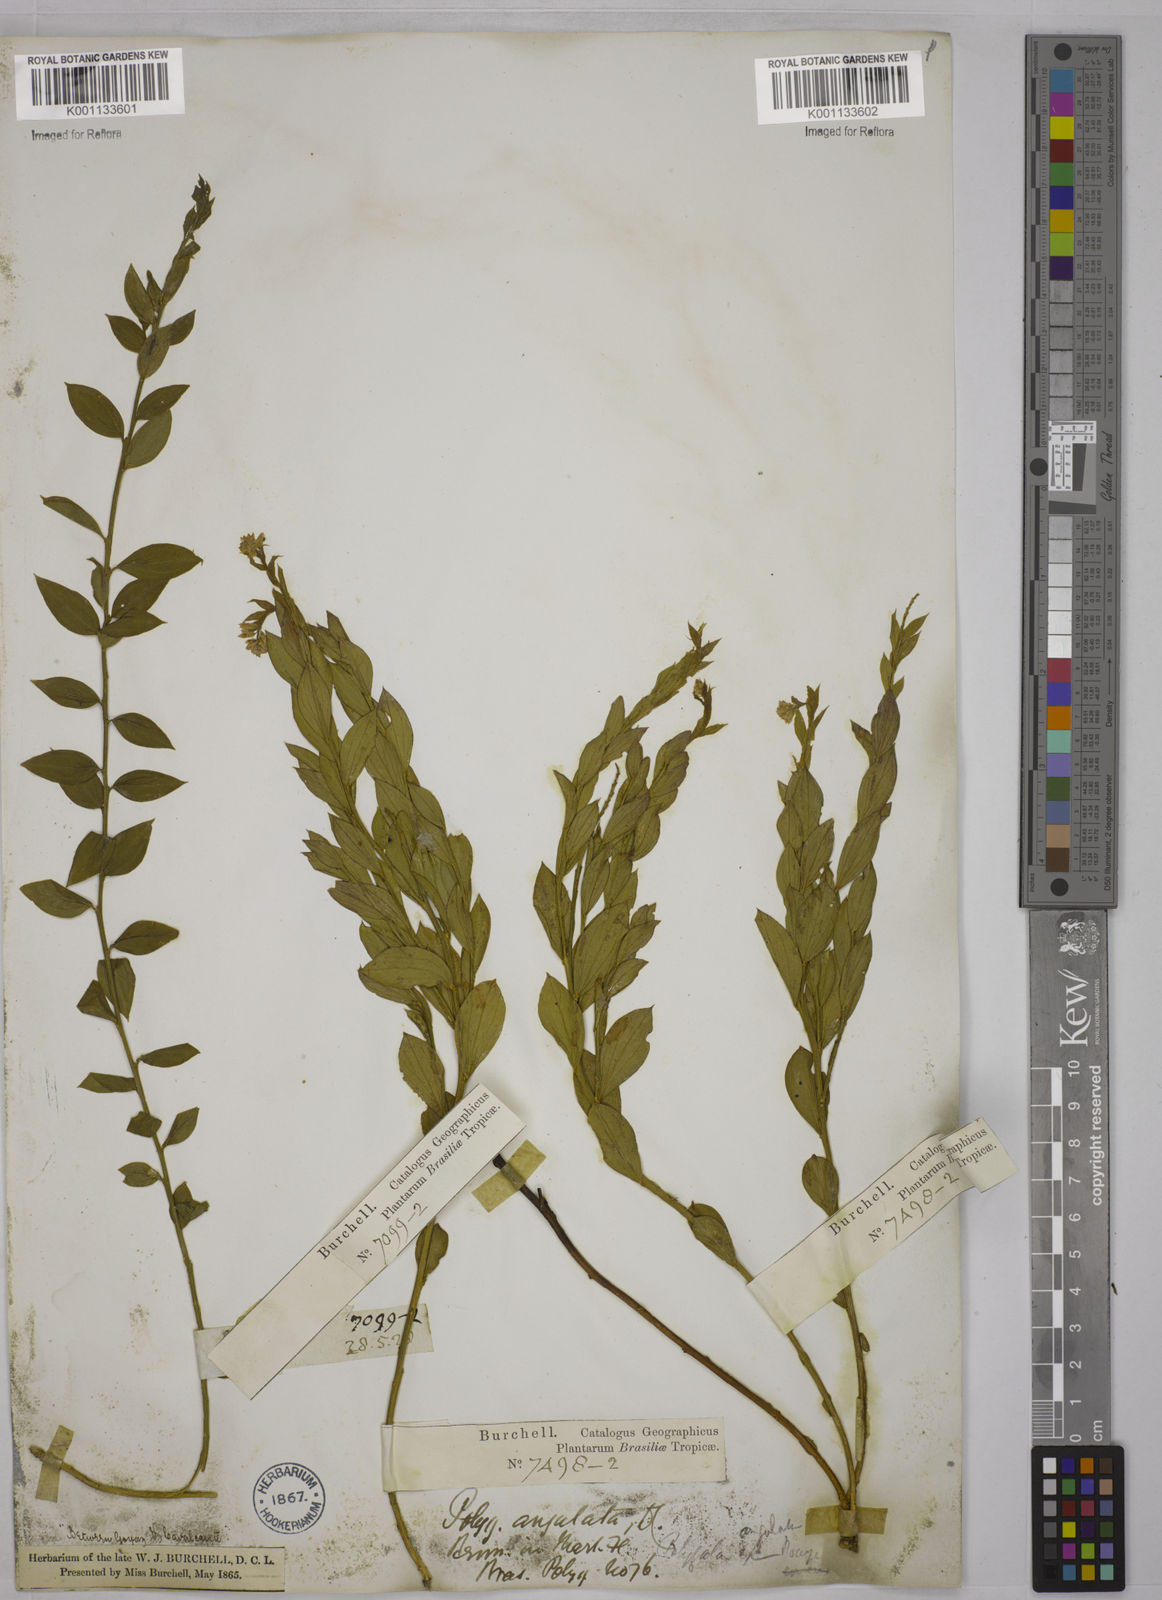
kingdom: Plantae
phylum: Tracheophyta
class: Magnoliopsida
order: Fabales
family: Polygalaceae
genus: Polygala
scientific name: Polygala poaya
